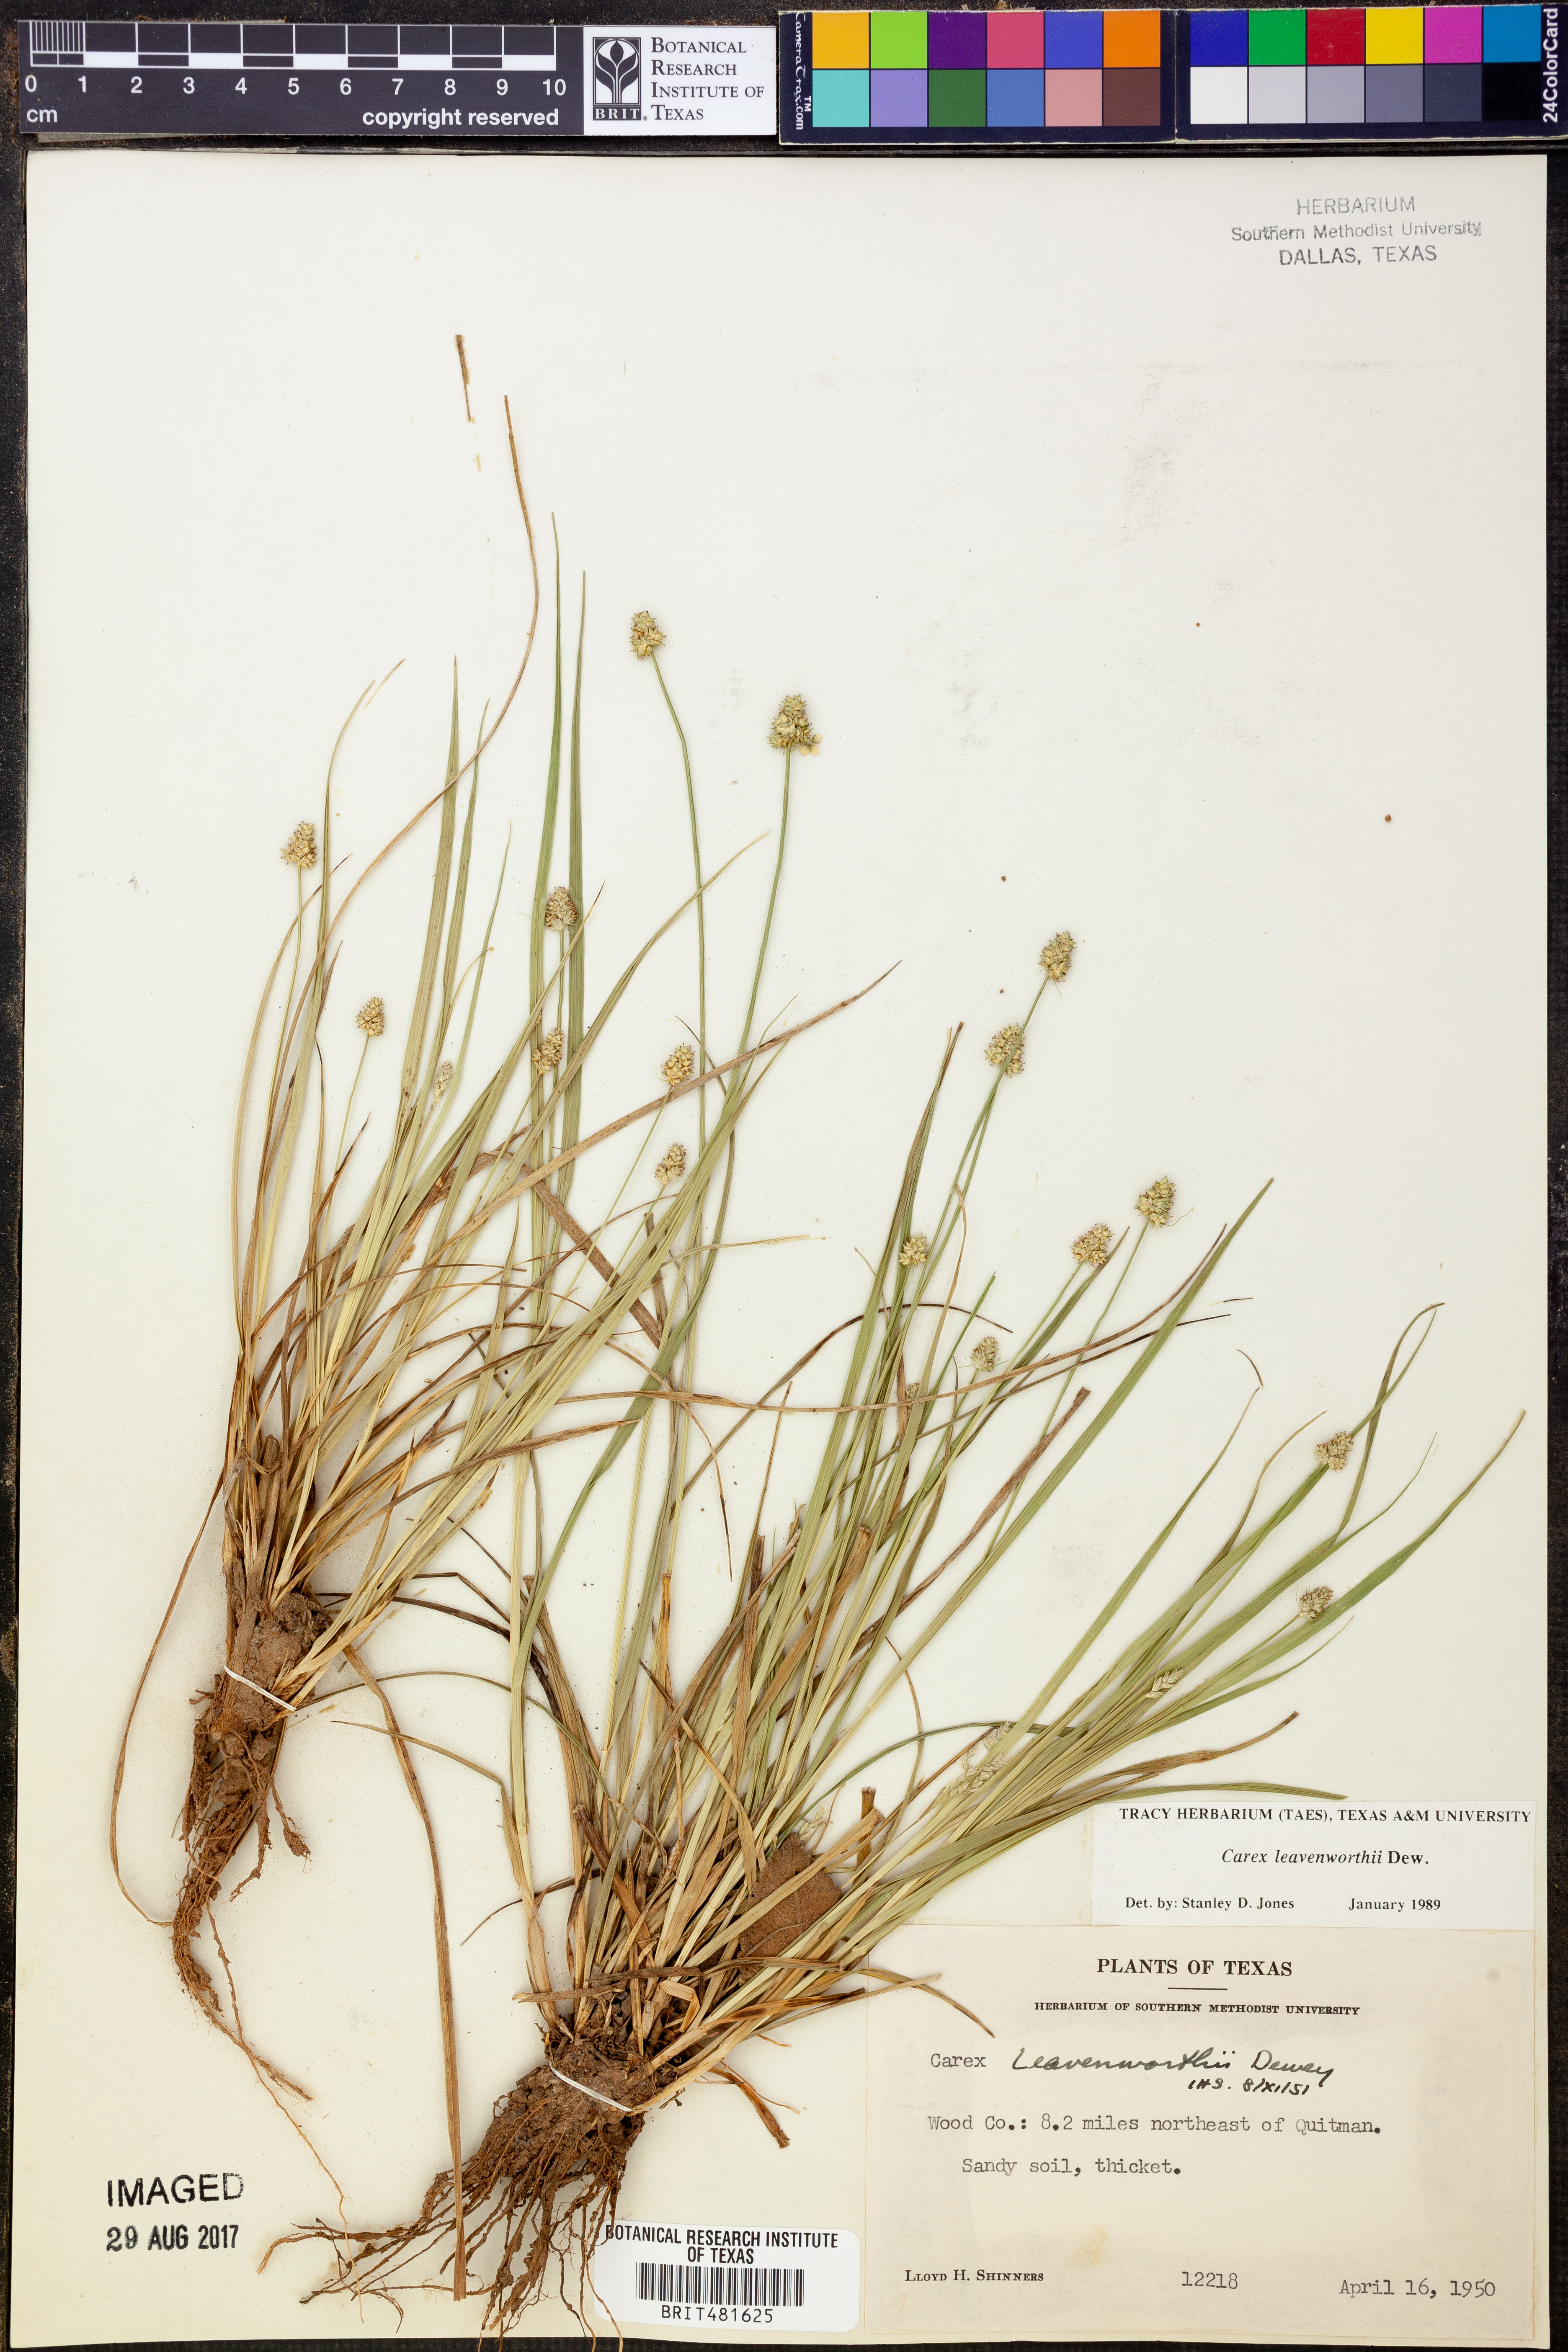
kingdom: Plantae
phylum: Tracheophyta
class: Liliopsida
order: Poales
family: Cyperaceae
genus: Carex
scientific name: Carex leavenworthii
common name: Leavenworth's bracted sedge
